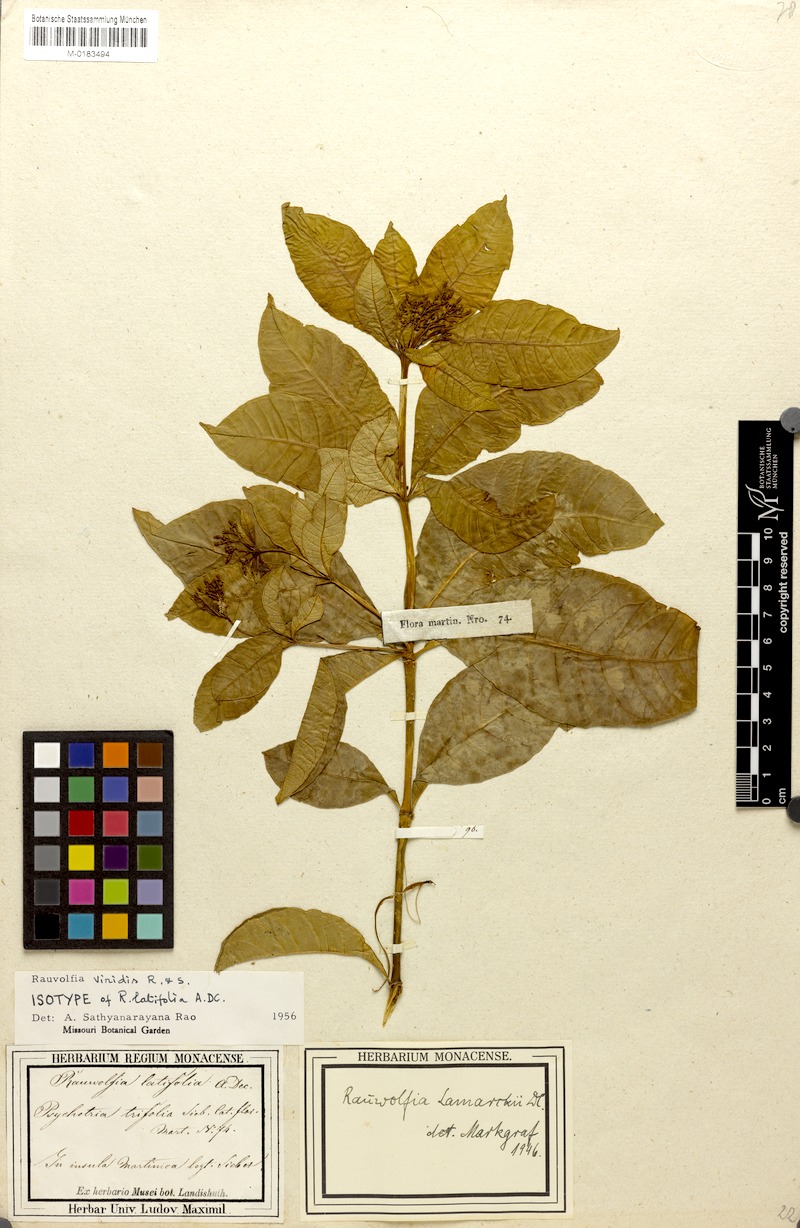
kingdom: Plantae
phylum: Tracheophyta
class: Magnoliopsida
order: Gentianales
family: Apocynaceae
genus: Rauvolfia
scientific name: Rauvolfia viridis
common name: Bellyache
